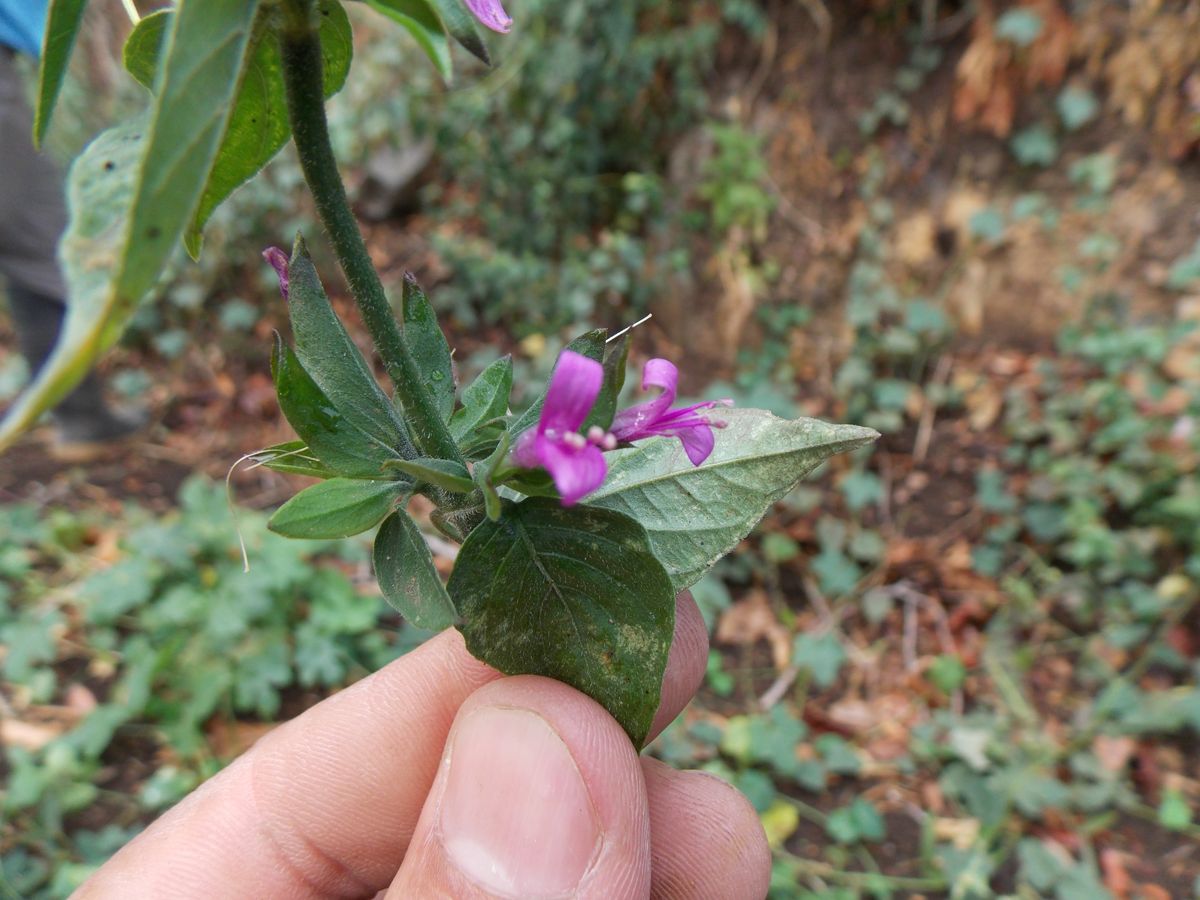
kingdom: Plantae
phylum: Tracheophyta
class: Magnoliopsida
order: Lamiales
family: Acanthaceae
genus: Dicliptera
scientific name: Dicliptera inutilis
